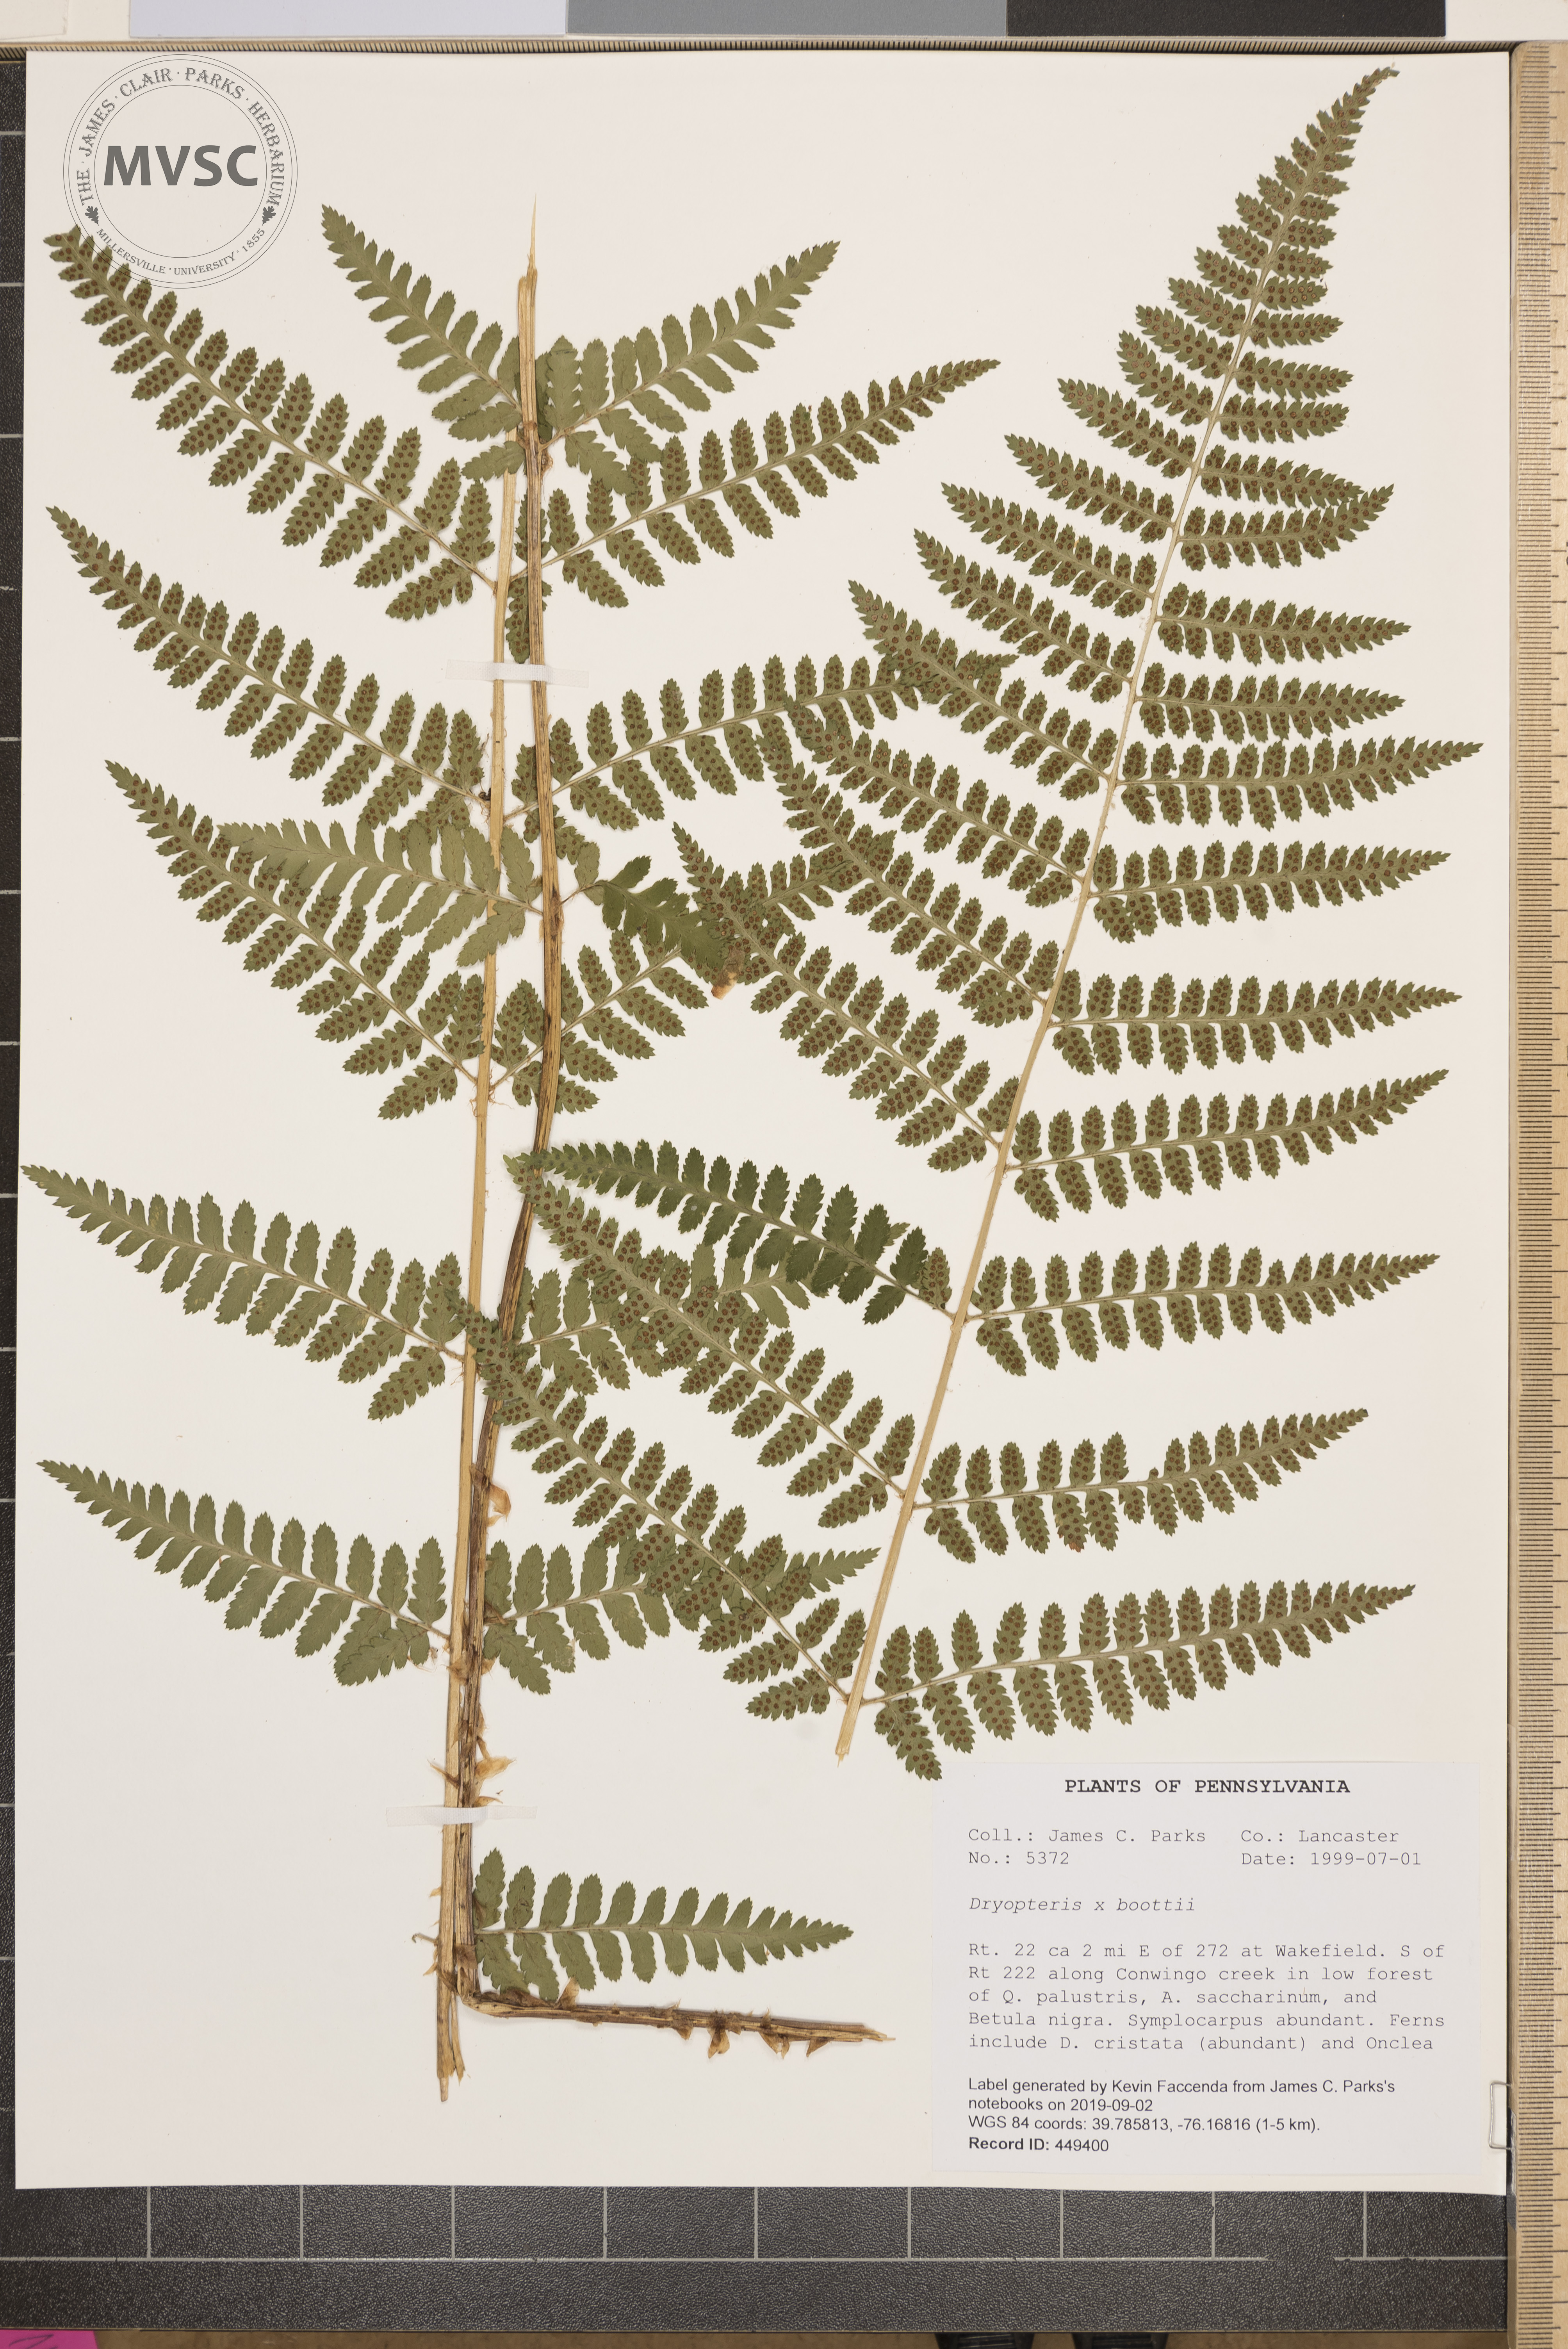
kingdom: Plantae
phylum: Tracheophyta
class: Polypodiopsida
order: Polypodiales
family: Dryopteridaceae
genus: Dryopteris
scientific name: Dryopteris boottii
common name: Boott's fern
